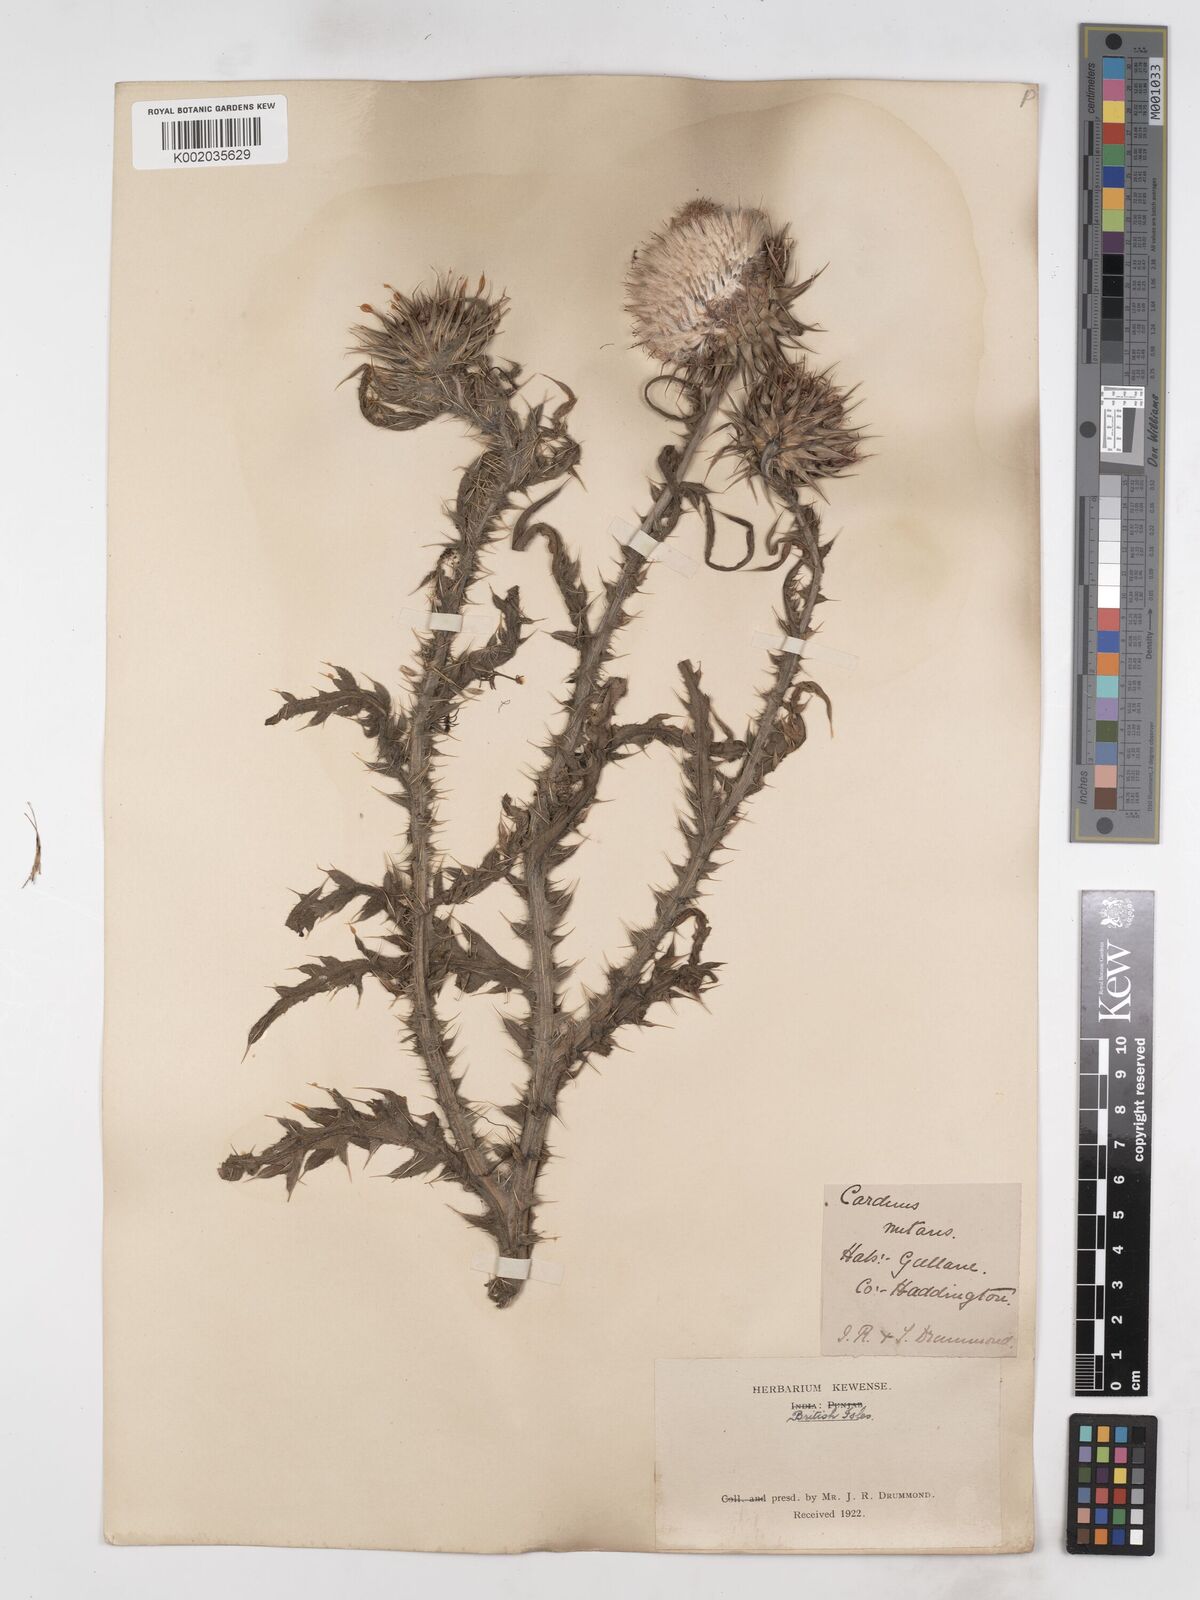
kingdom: Plantae
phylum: Tracheophyta
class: Magnoliopsida
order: Asterales
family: Asteraceae
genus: Carduus
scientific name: Carduus nutans
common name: Musk thistle
